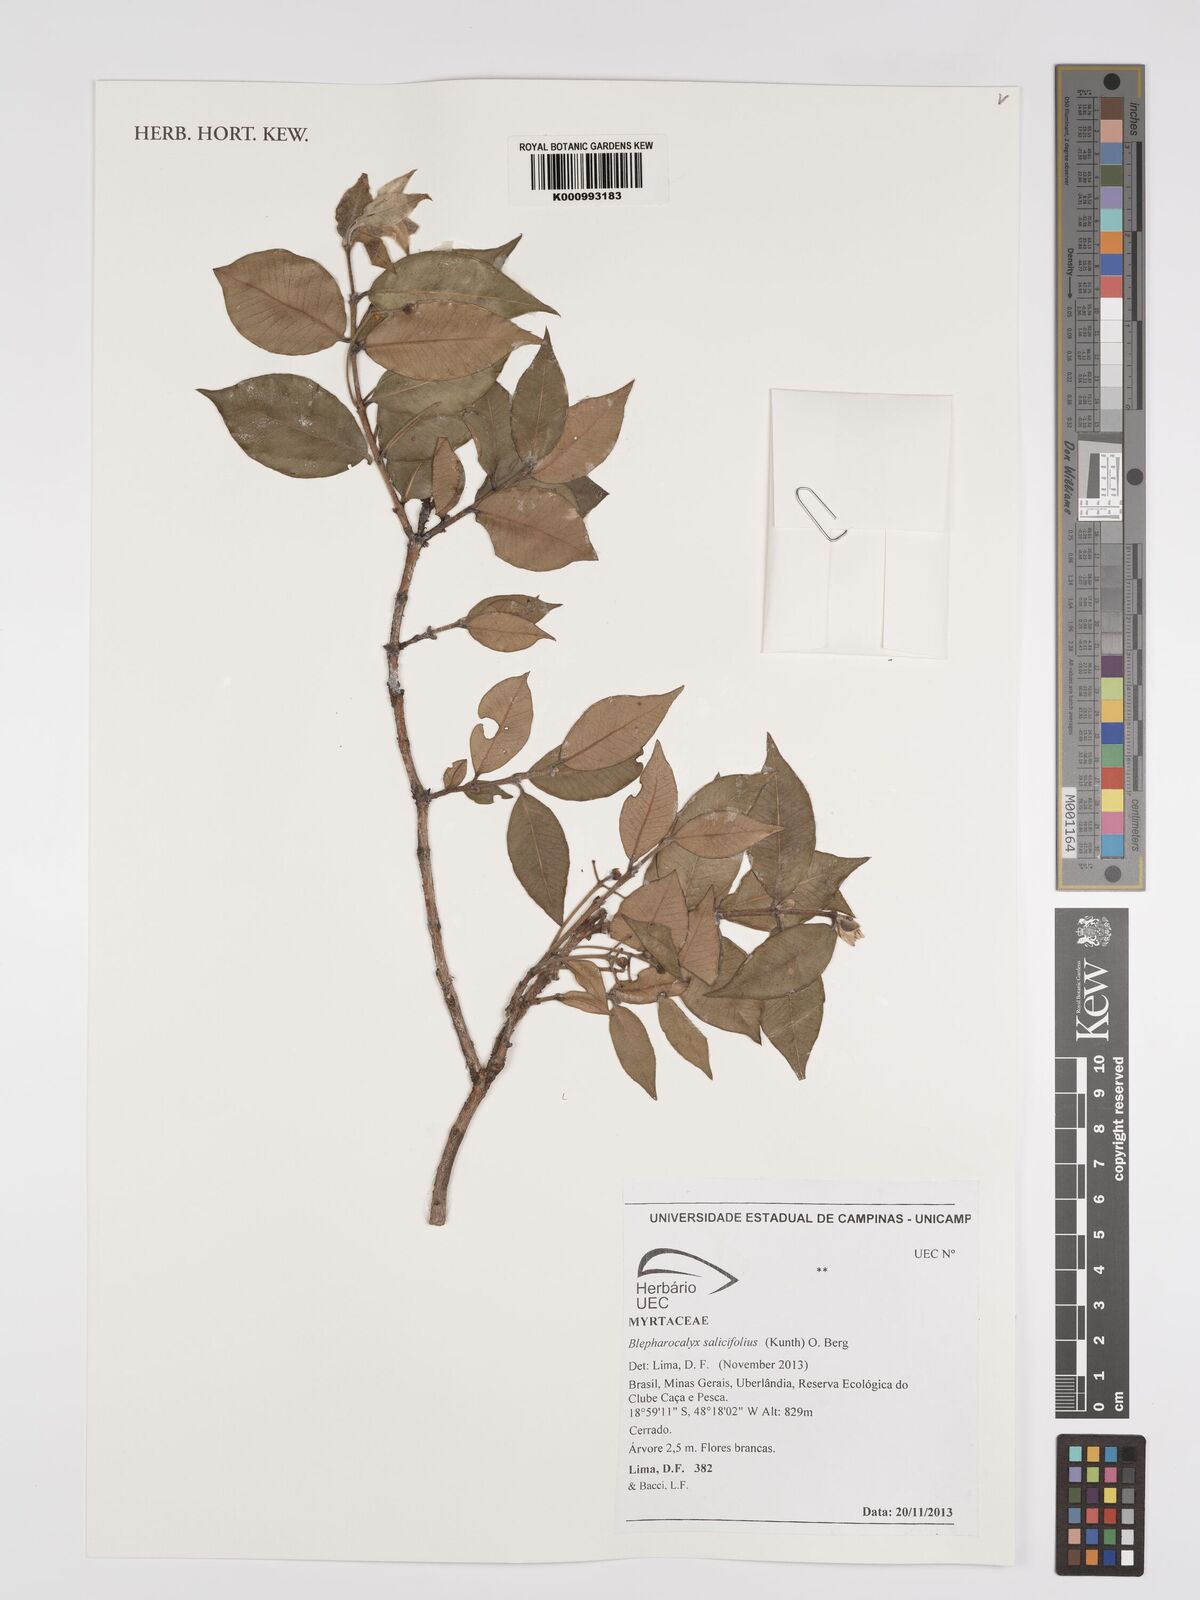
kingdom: Plantae
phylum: Tracheophyta
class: Magnoliopsida
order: Myrtales
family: Myrtaceae
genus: Blepharocalyx
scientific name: Blepharocalyx salicifolius
